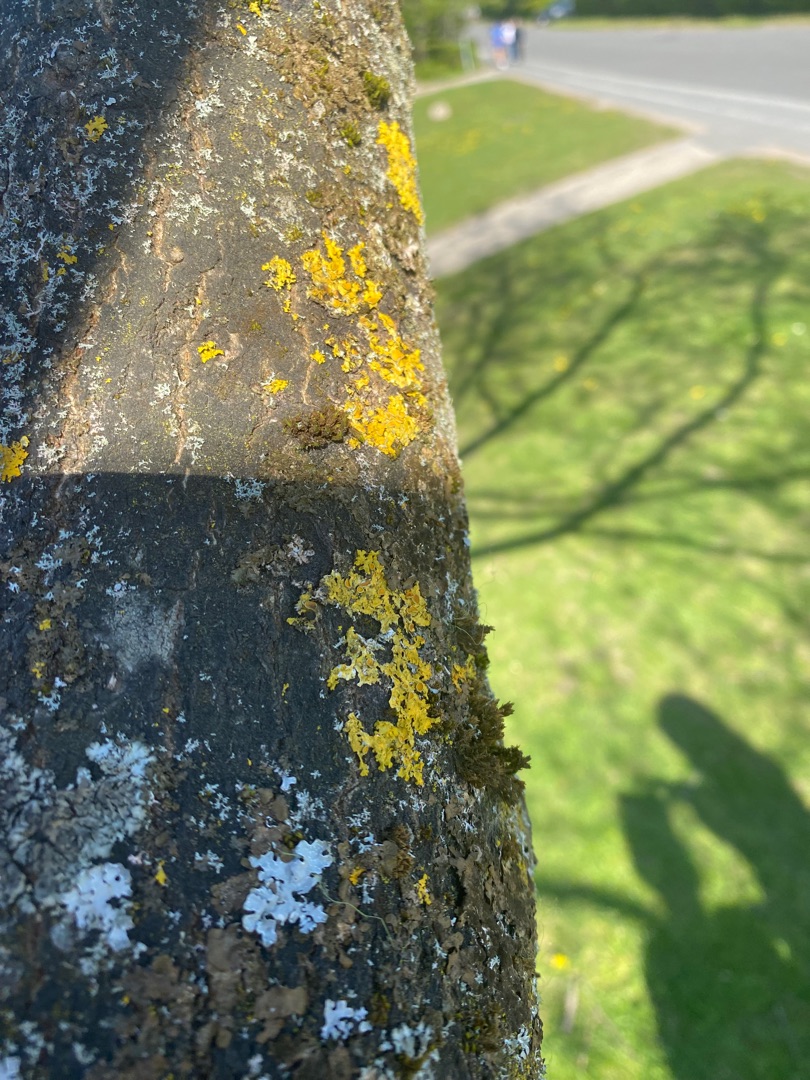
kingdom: Fungi
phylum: Ascomycota
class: Lecanoromycetes
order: Teloschistales
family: Teloschistaceae
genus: Xanthoria
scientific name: Xanthoria parietina
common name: Almindelig væggelav
